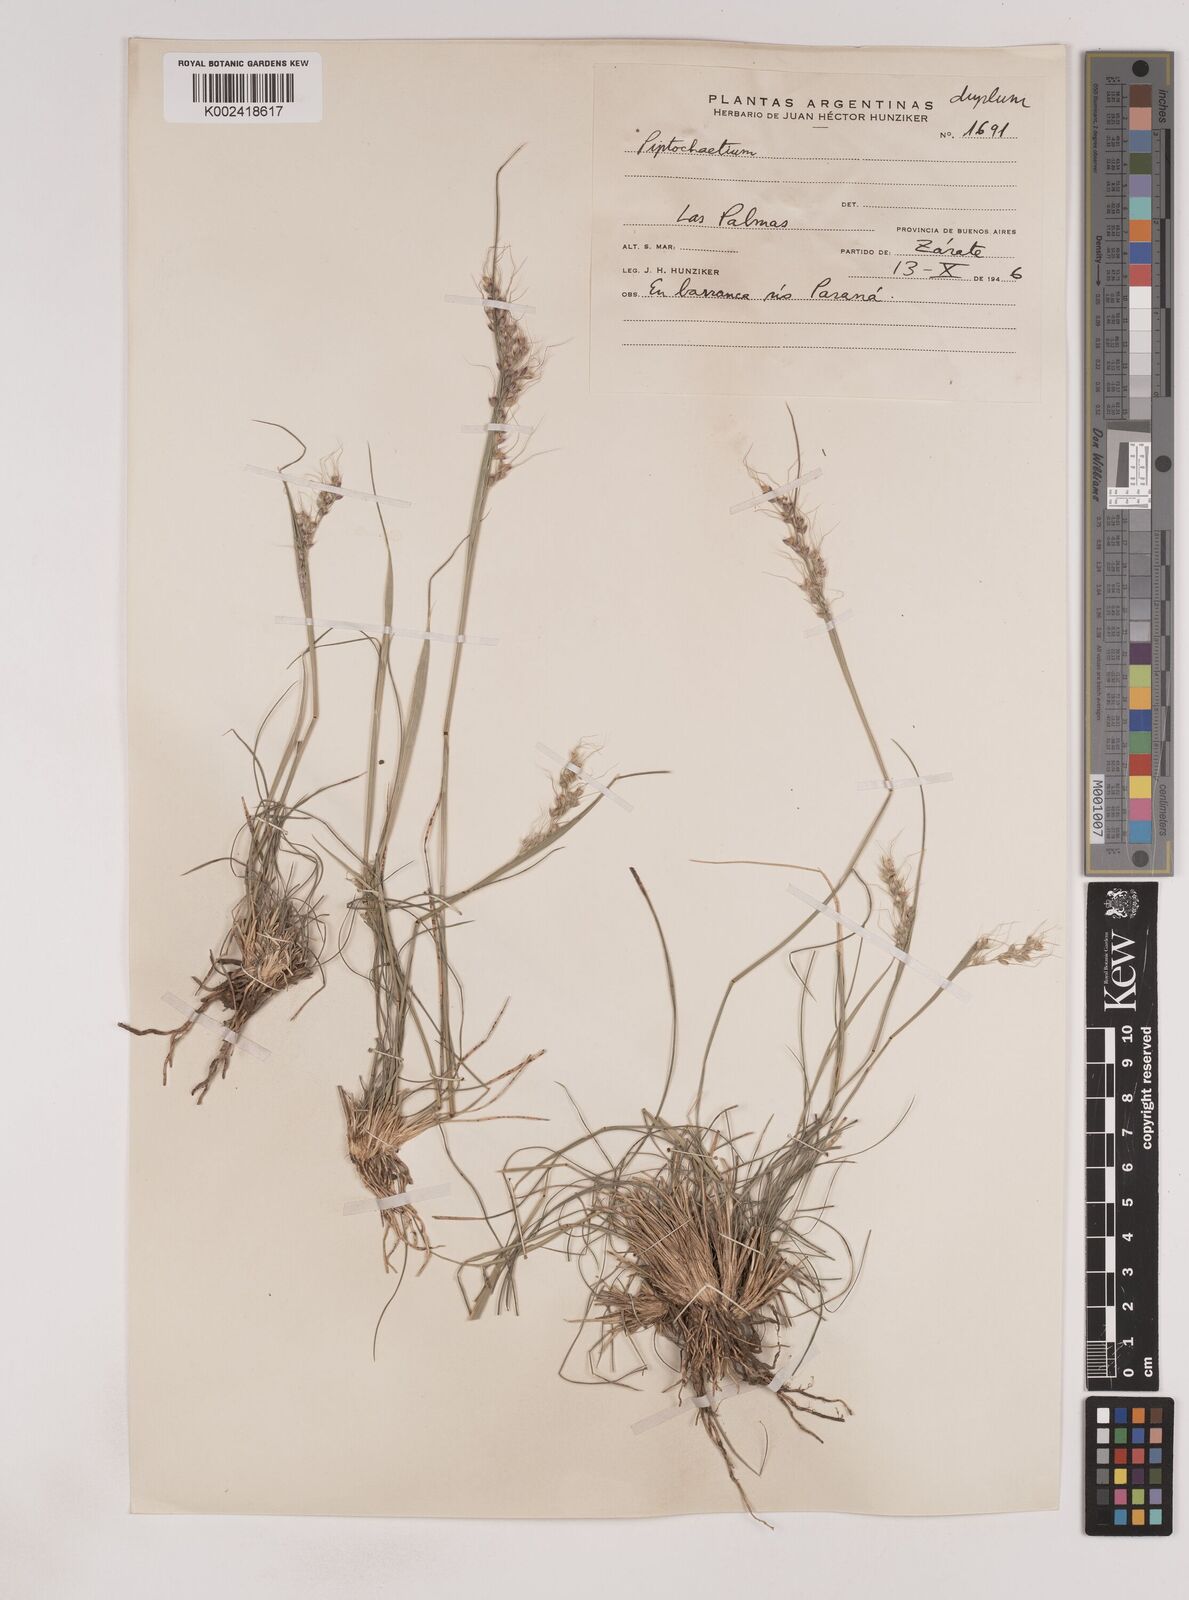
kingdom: Plantae
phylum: Tracheophyta
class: Liliopsida
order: Poales
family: Poaceae
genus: Piptochaetium
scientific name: Piptochaetium
